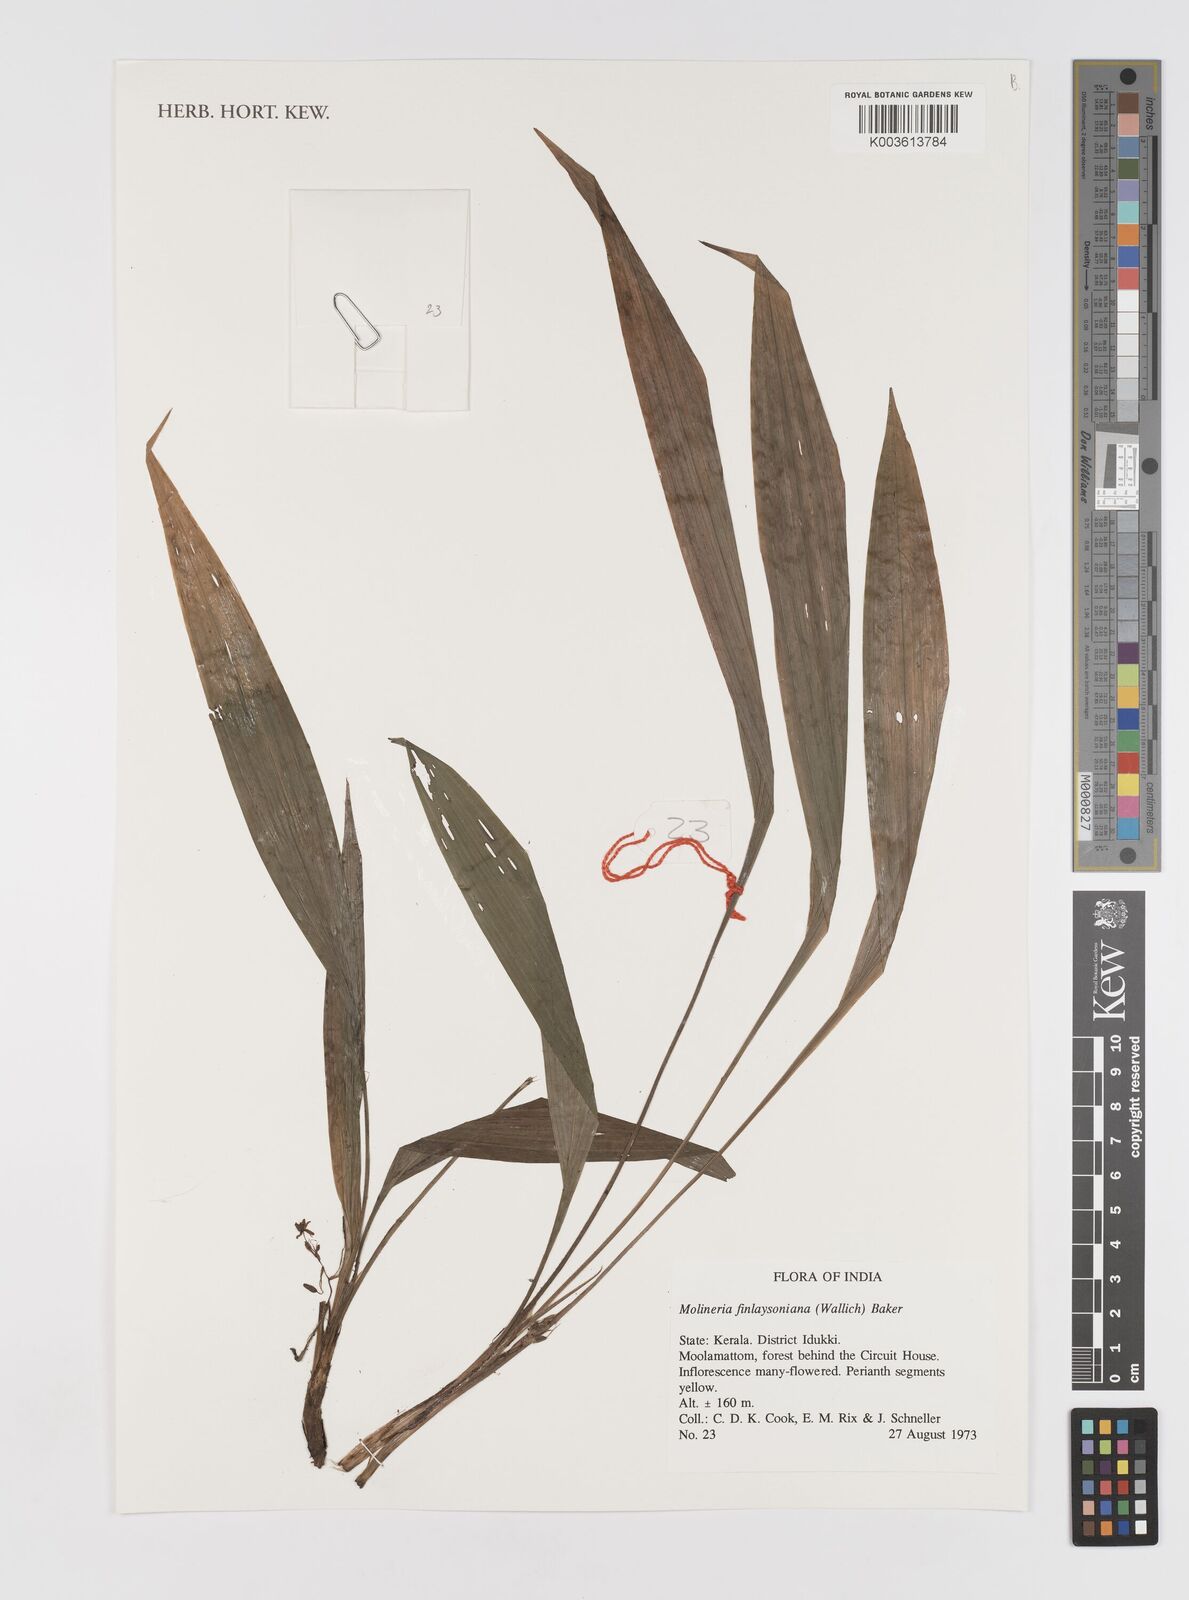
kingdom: Plantae
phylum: Tracheophyta
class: Liliopsida
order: Asparagales
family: Hypoxidaceae
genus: Curculigo
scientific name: Curculigo trichocarpa
